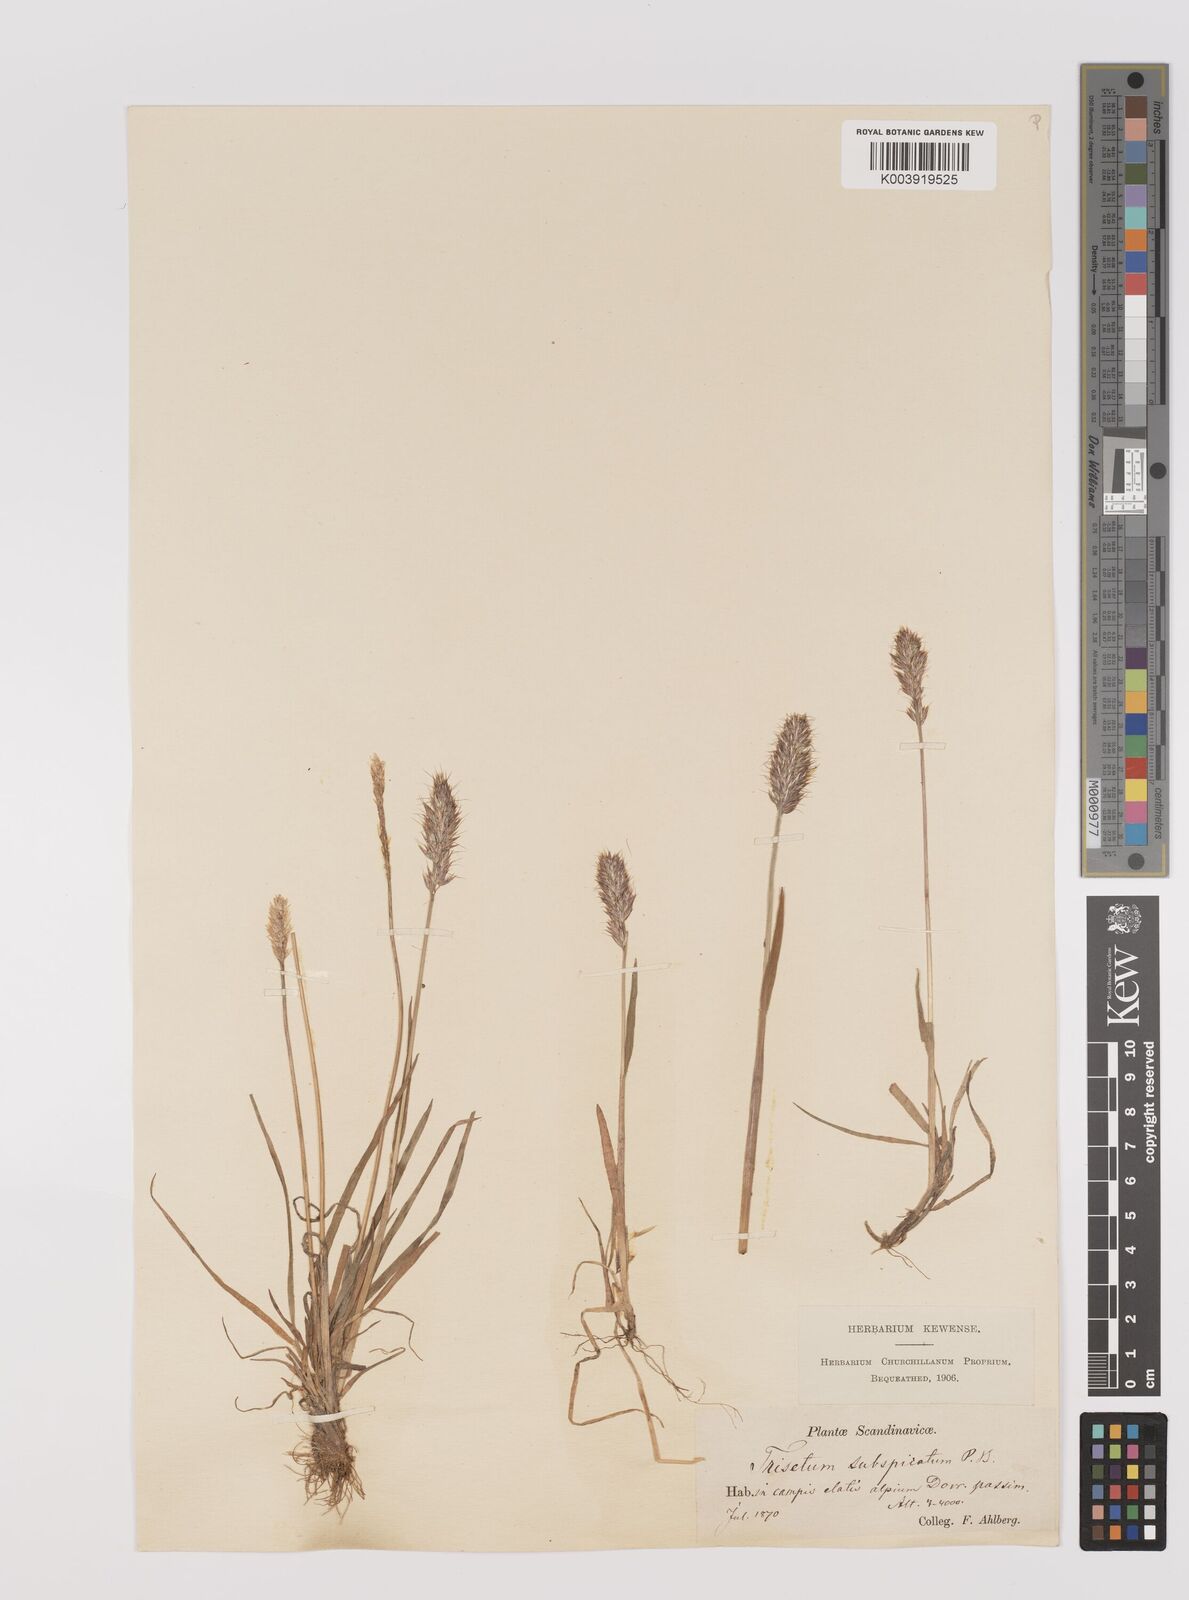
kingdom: Plantae
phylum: Tracheophyta
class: Liliopsida
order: Poales
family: Poaceae
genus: Koeleria
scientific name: Koeleria spicata
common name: Mountain trisetum
